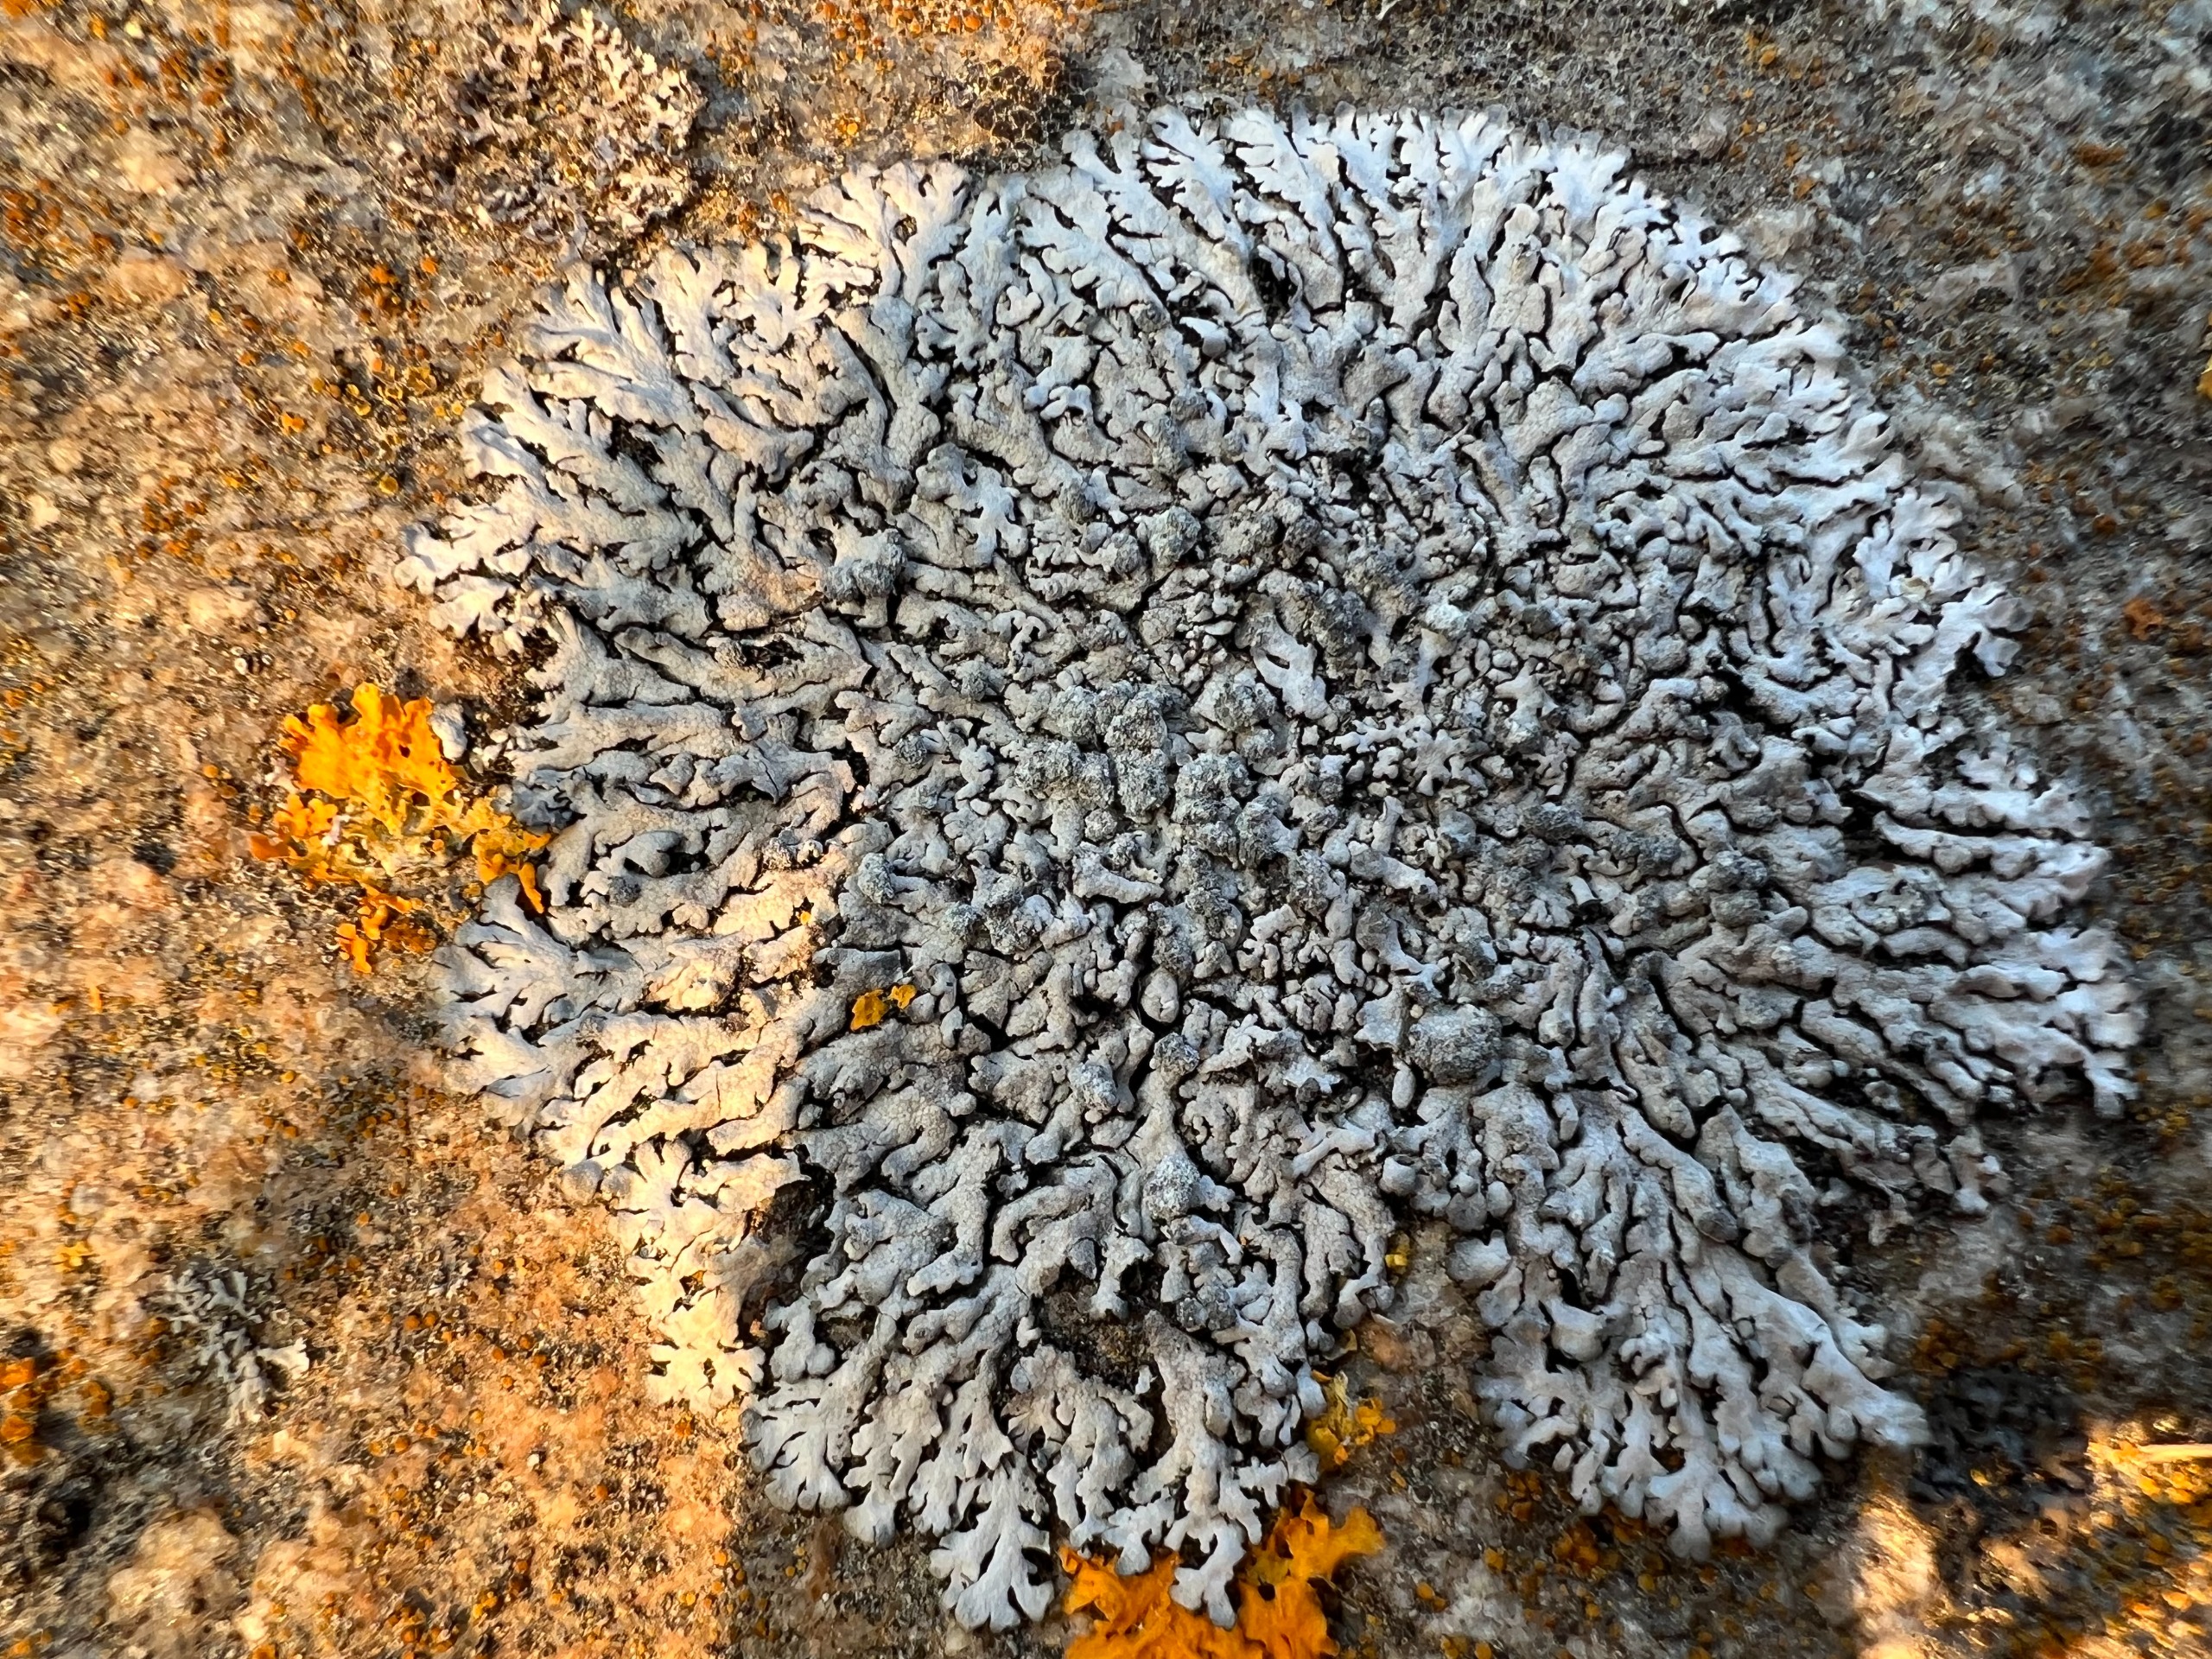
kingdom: Fungi
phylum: Ascomycota
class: Lecanoromycetes
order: Caliciales
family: Physciaceae
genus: Physcia
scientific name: Physcia caesia
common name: Blågrå rosetlav
